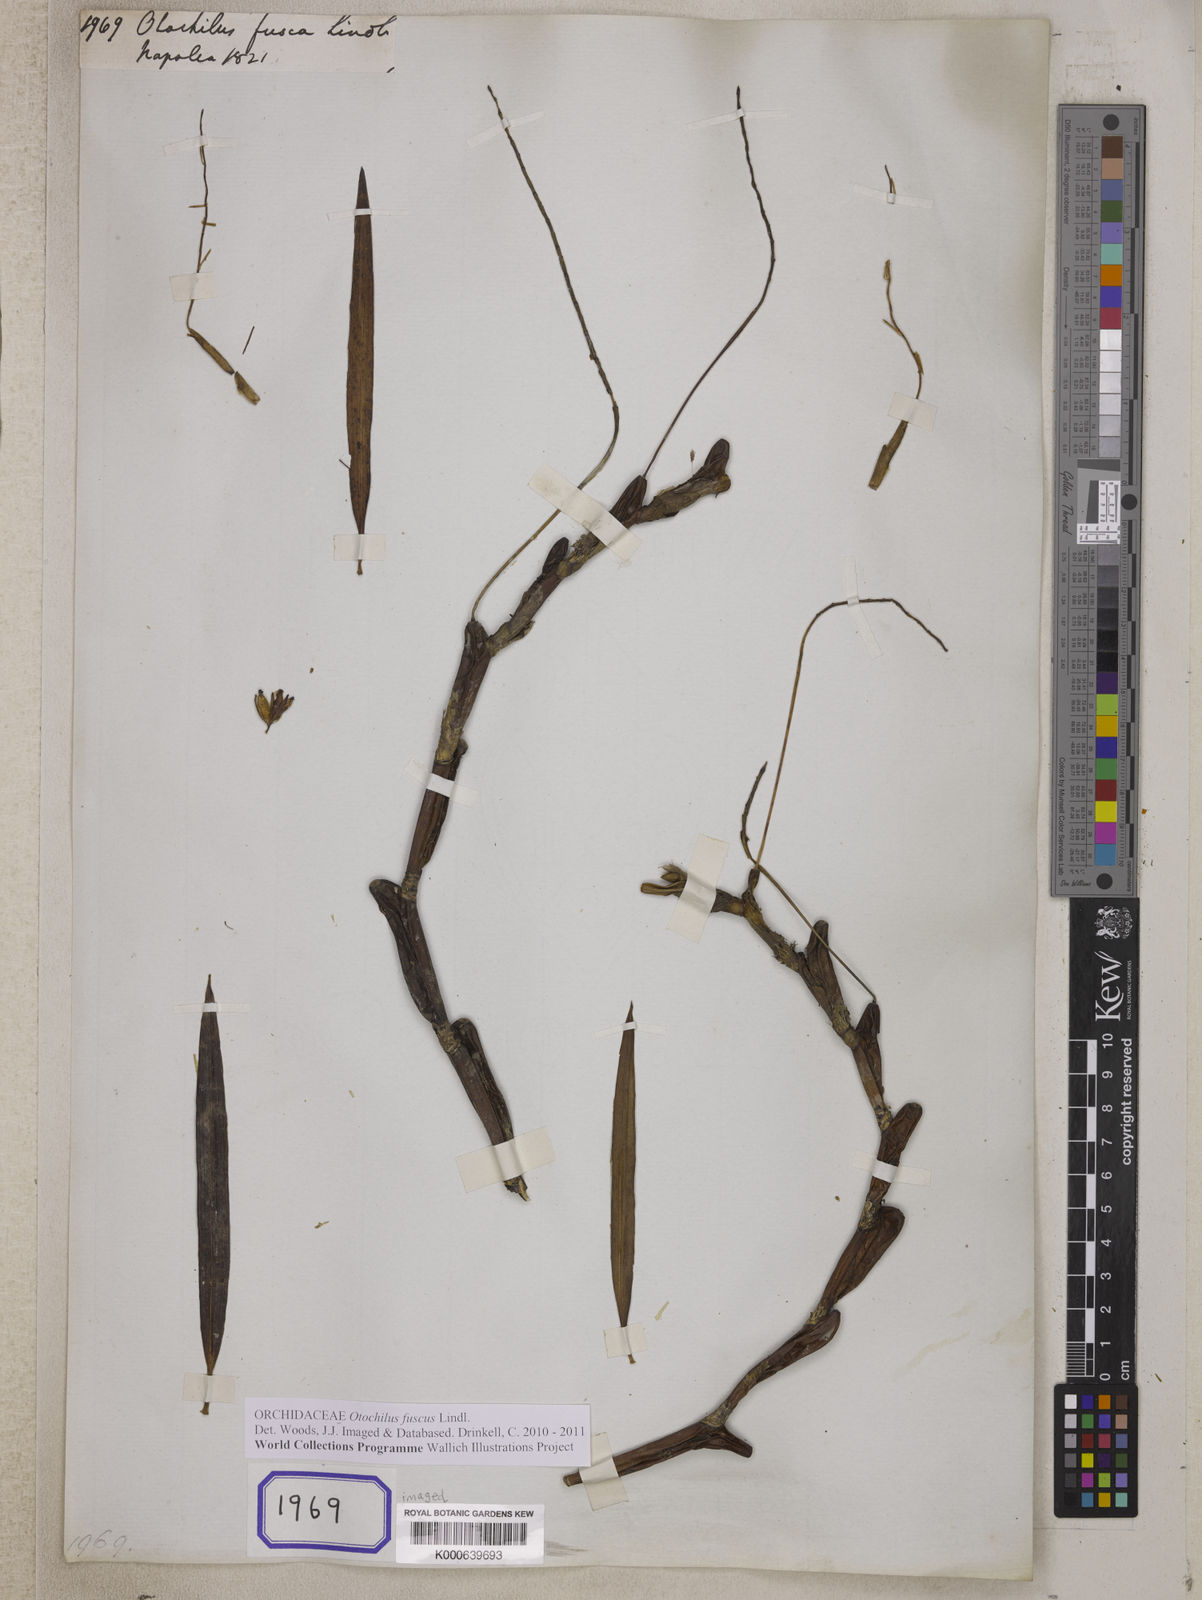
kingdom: Plantae
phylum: Tracheophyta
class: Liliopsida
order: Asparagales
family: Orchidaceae
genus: Coelogyne
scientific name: Coelogyne fusca
